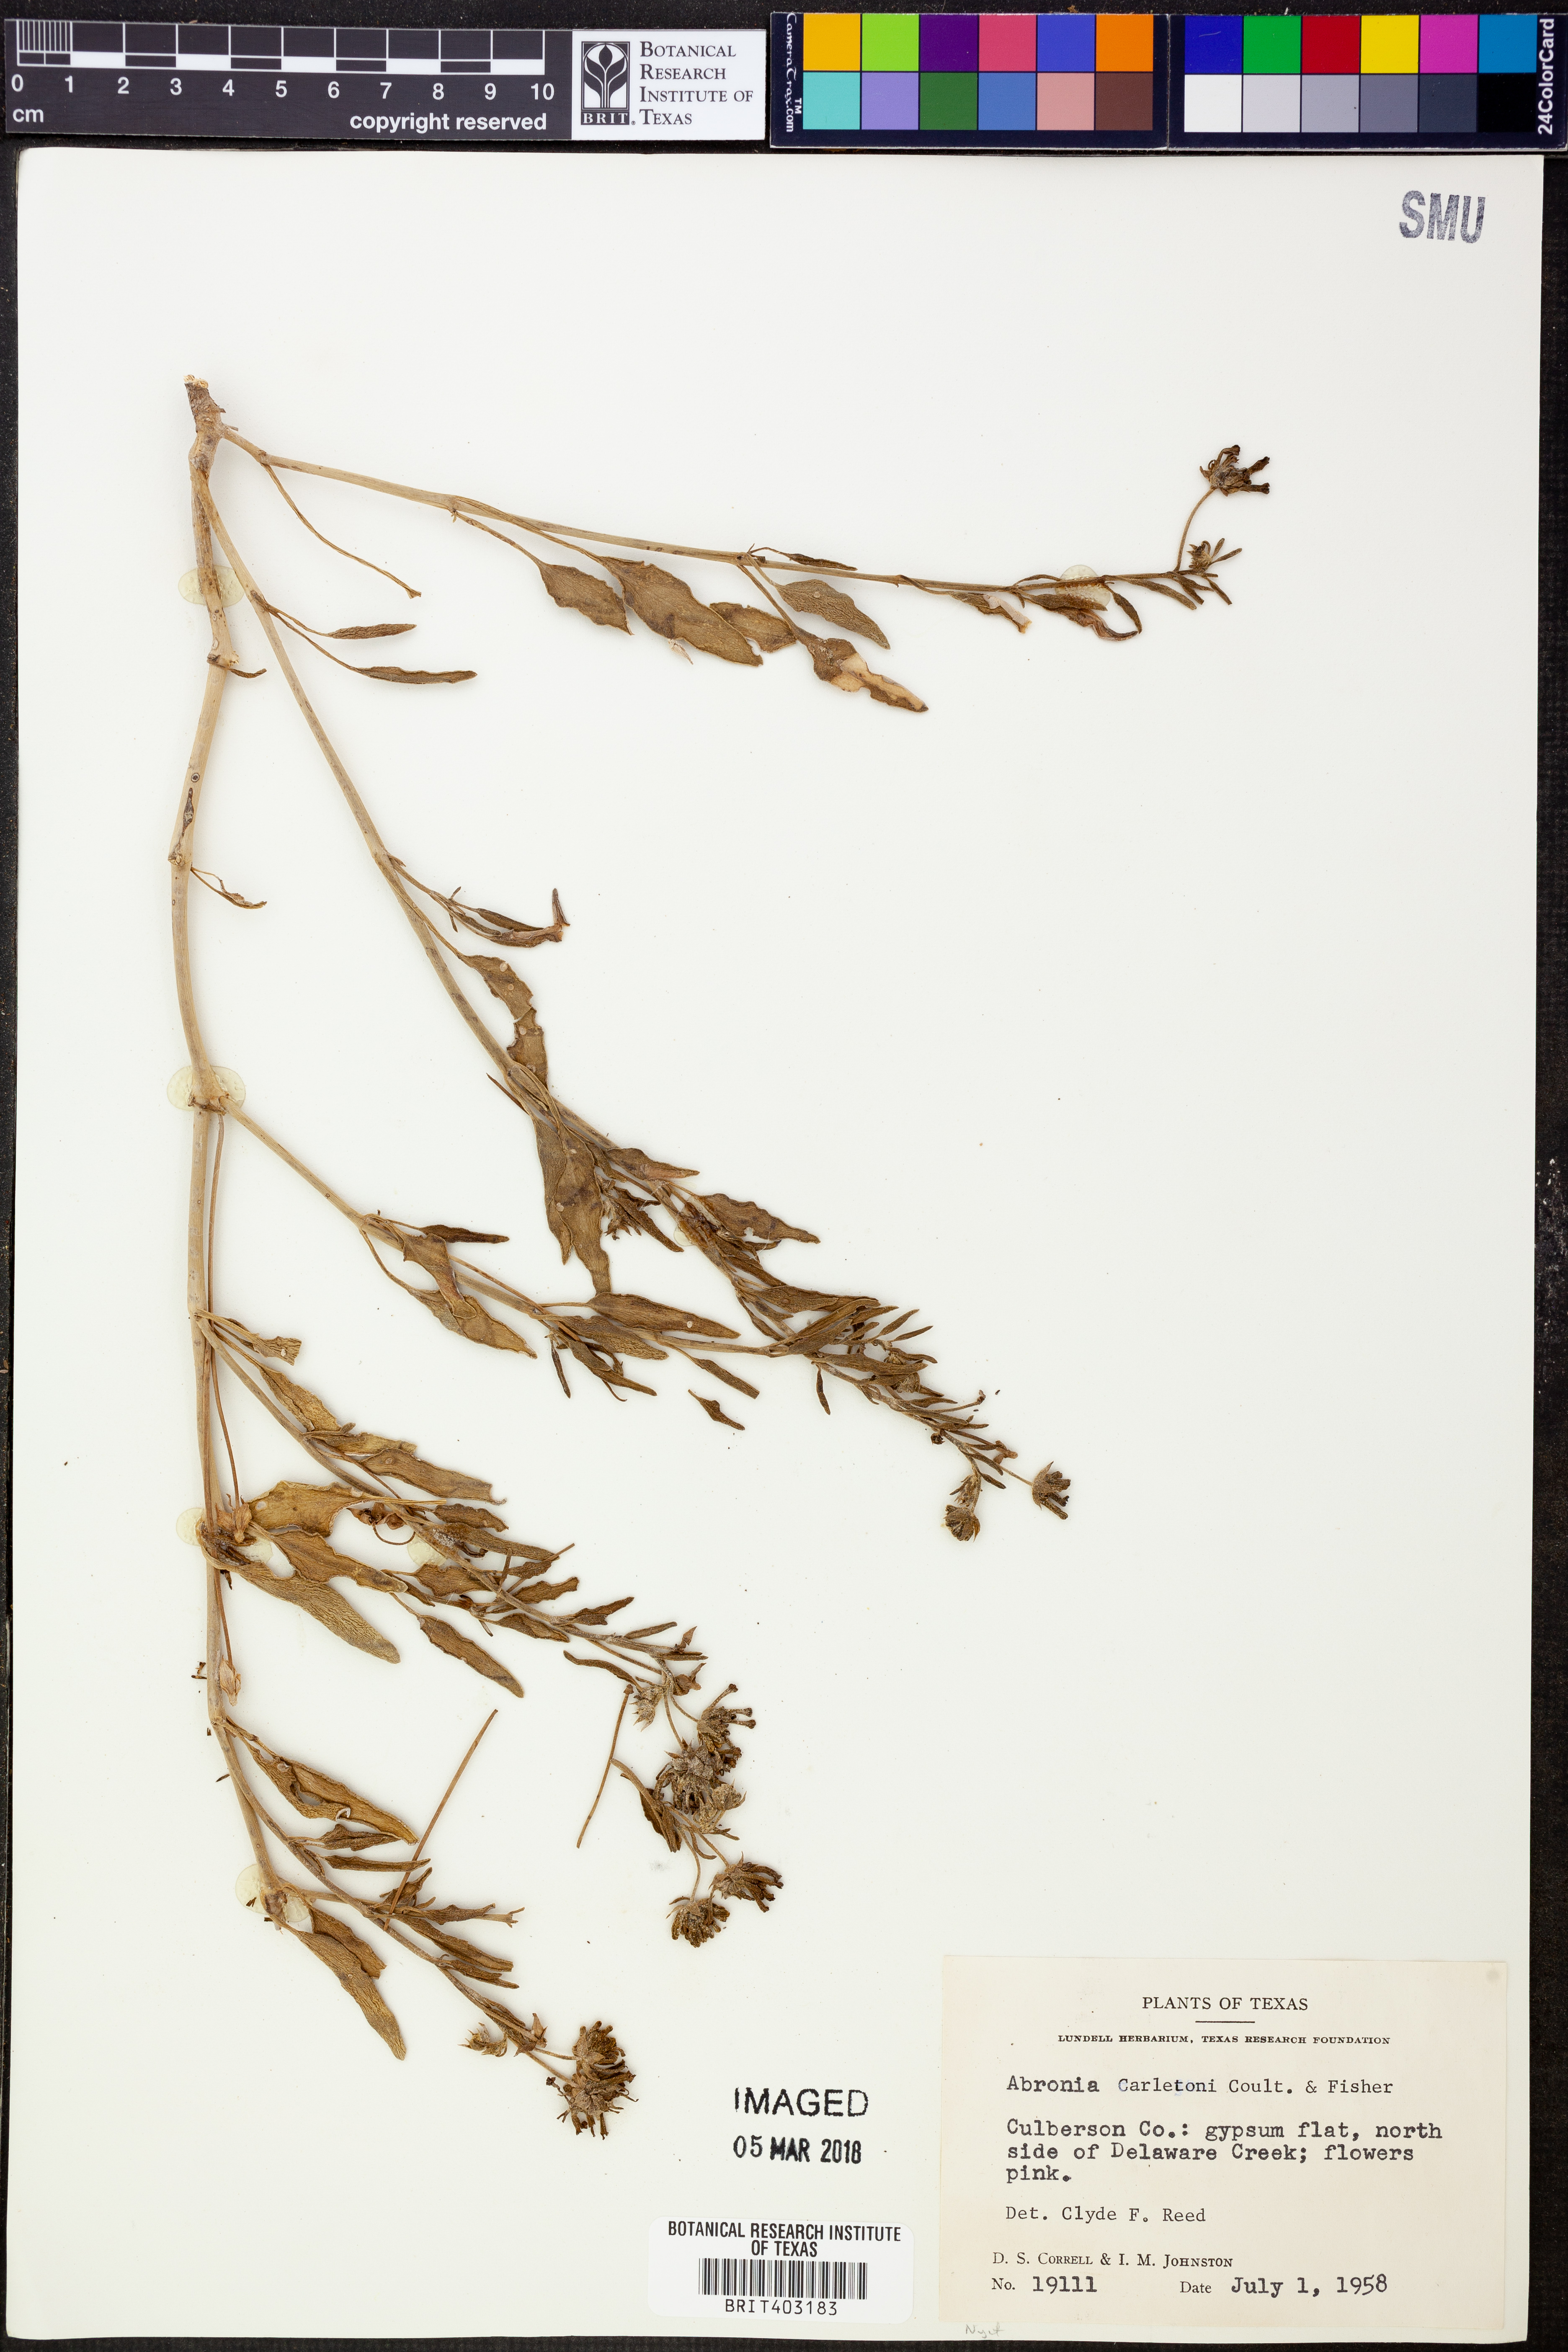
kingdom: Plantae
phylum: Tracheophyta
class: Magnoliopsida
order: Caryophyllales
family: Nyctaginaceae
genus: Abronia
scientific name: Abronia carletonii
